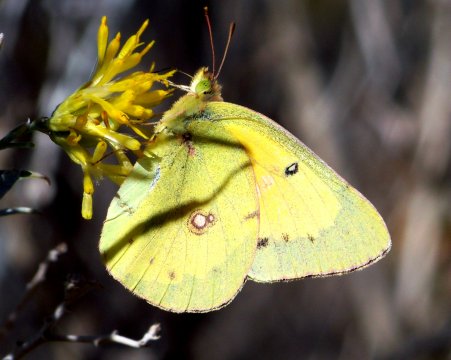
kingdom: Animalia
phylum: Arthropoda
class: Insecta
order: Lepidoptera
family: Pieridae
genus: Colias
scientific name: Colias eurytheme
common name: Orange Sulphur
